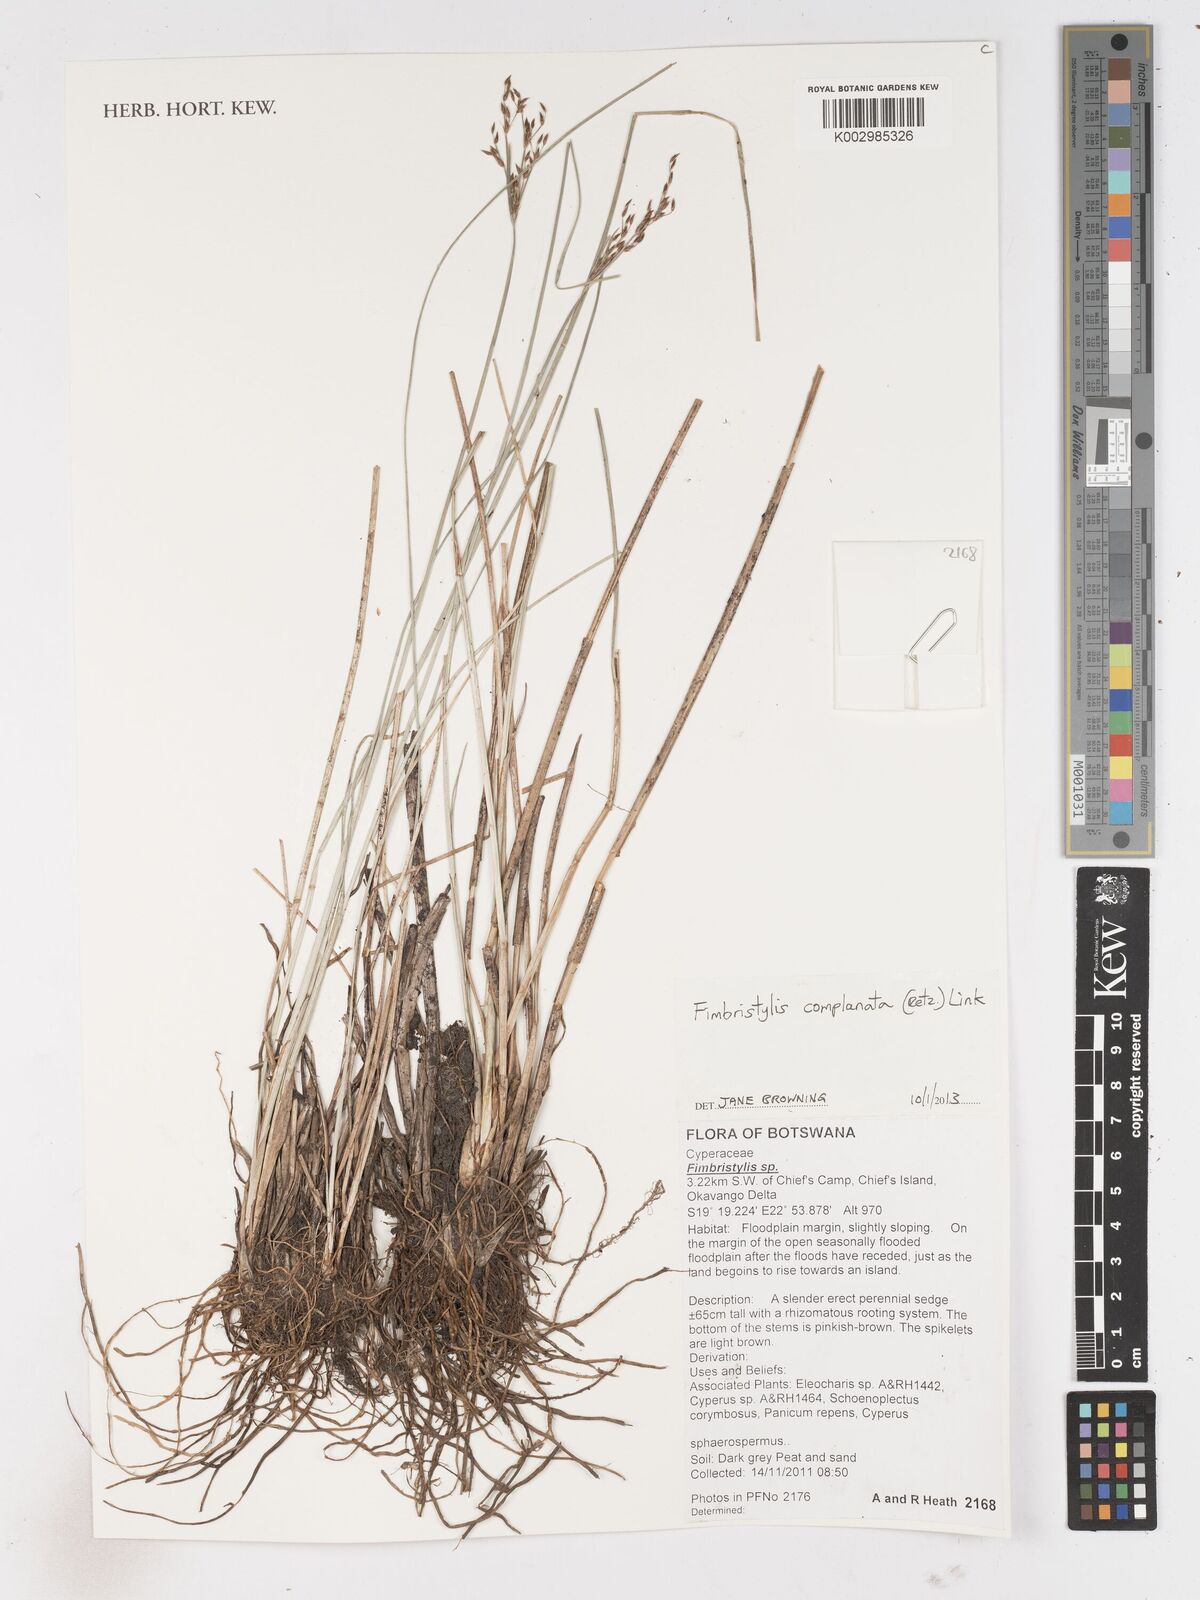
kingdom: Plantae
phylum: Tracheophyta
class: Liliopsida
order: Poales
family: Cyperaceae
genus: Fimbristylis
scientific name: Fimbristylis complanata
